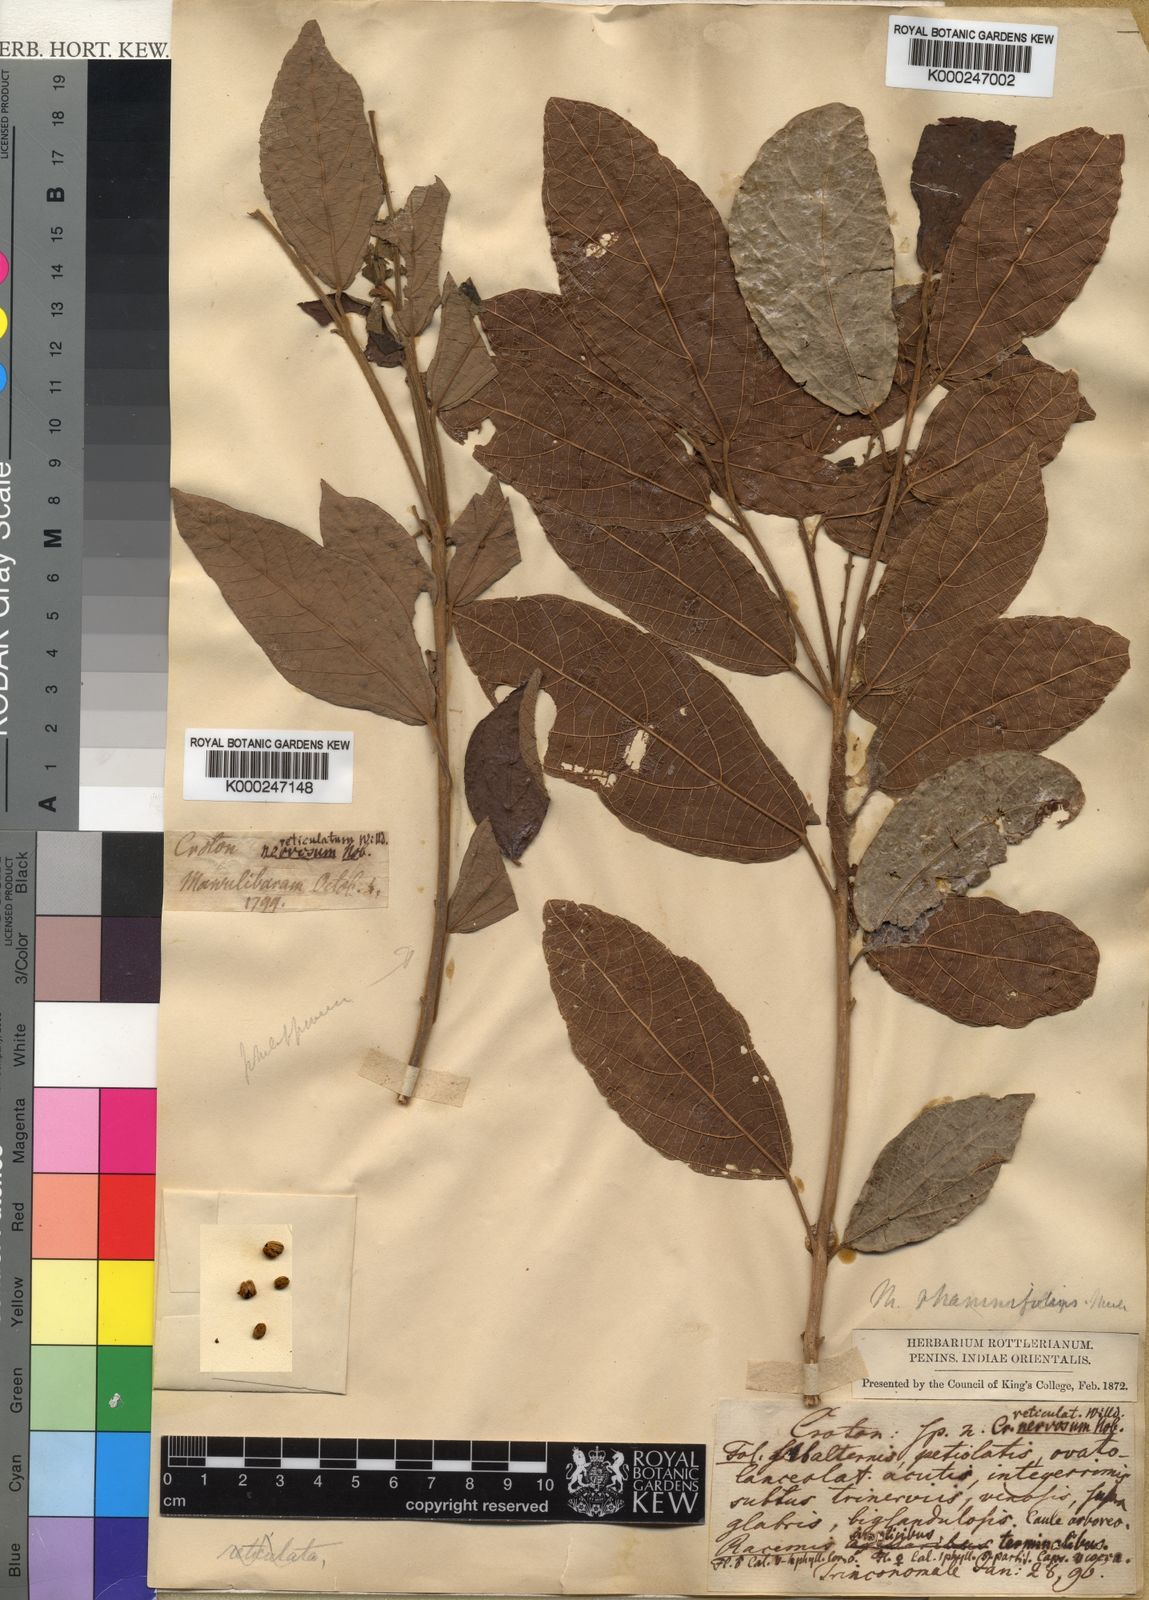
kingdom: Plantae
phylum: Tracheophyta
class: Magnoliopsida
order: Malpighiales
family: Euphorbiaceae
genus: Mallotus
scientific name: Mallotus rhamnifolius
